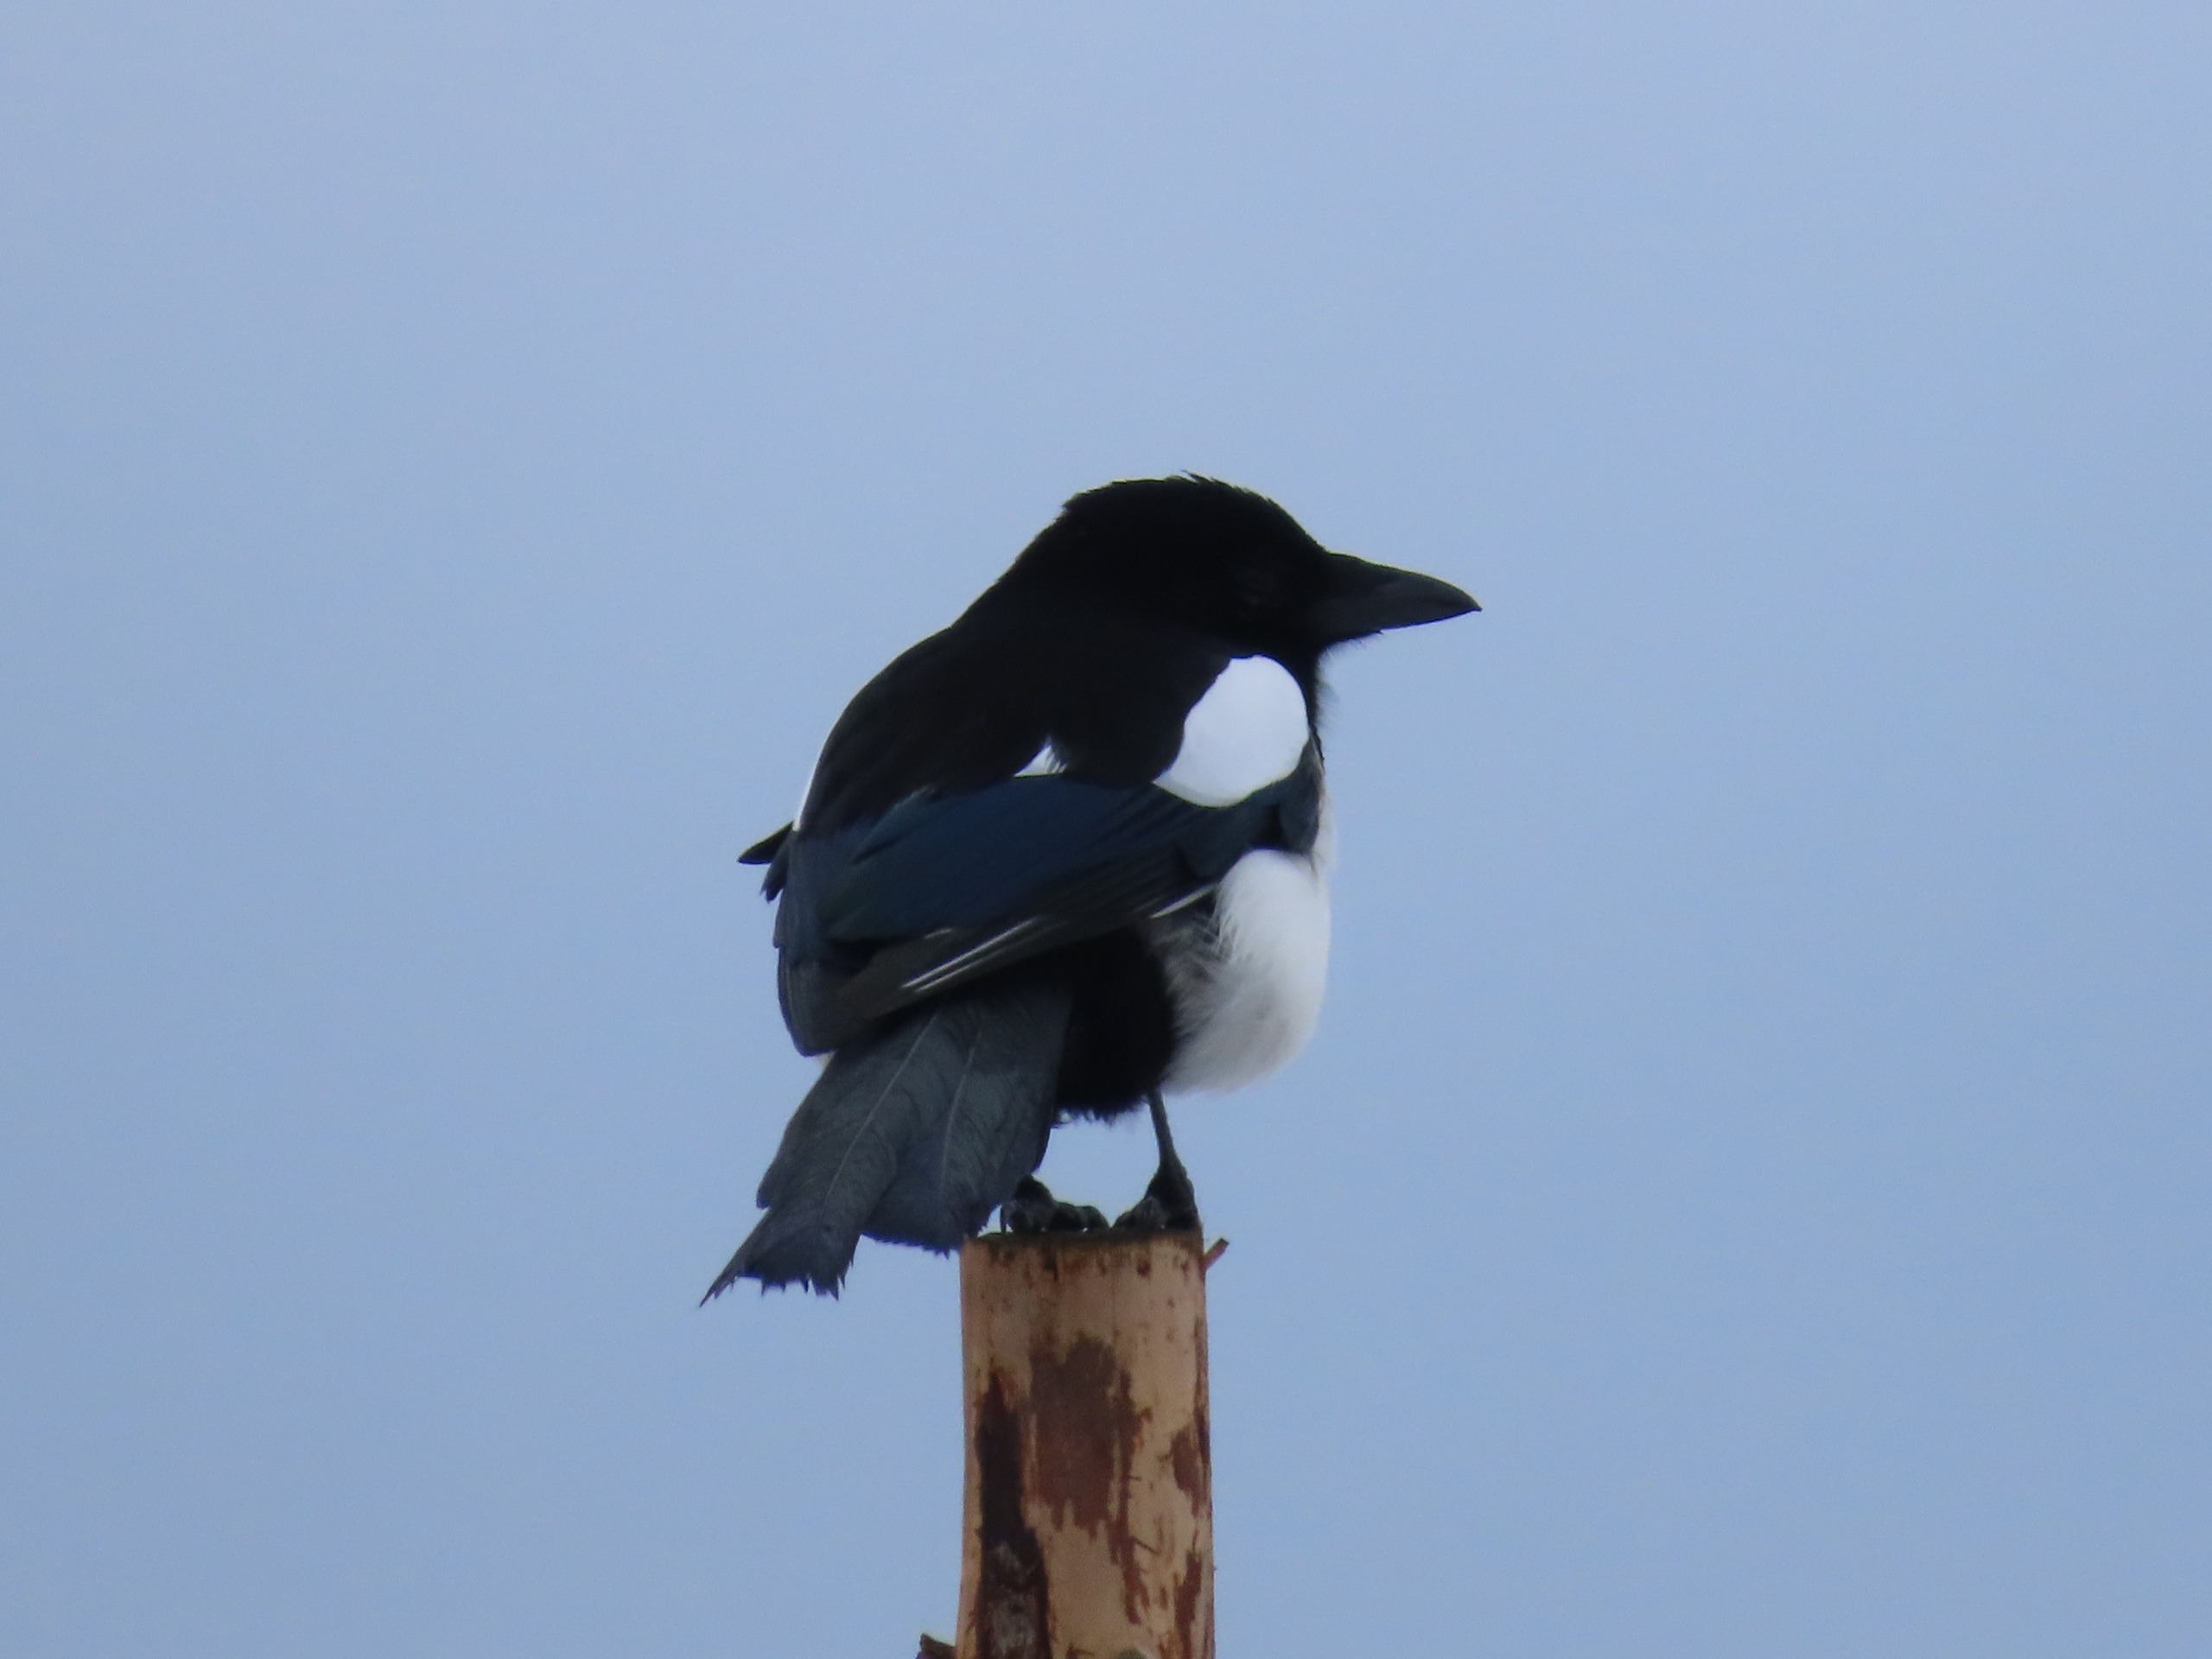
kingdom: Animalia
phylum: Chordata
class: Aves
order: Passeriformes
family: Corvidae
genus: Pica
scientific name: Pica pica
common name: Husskade
